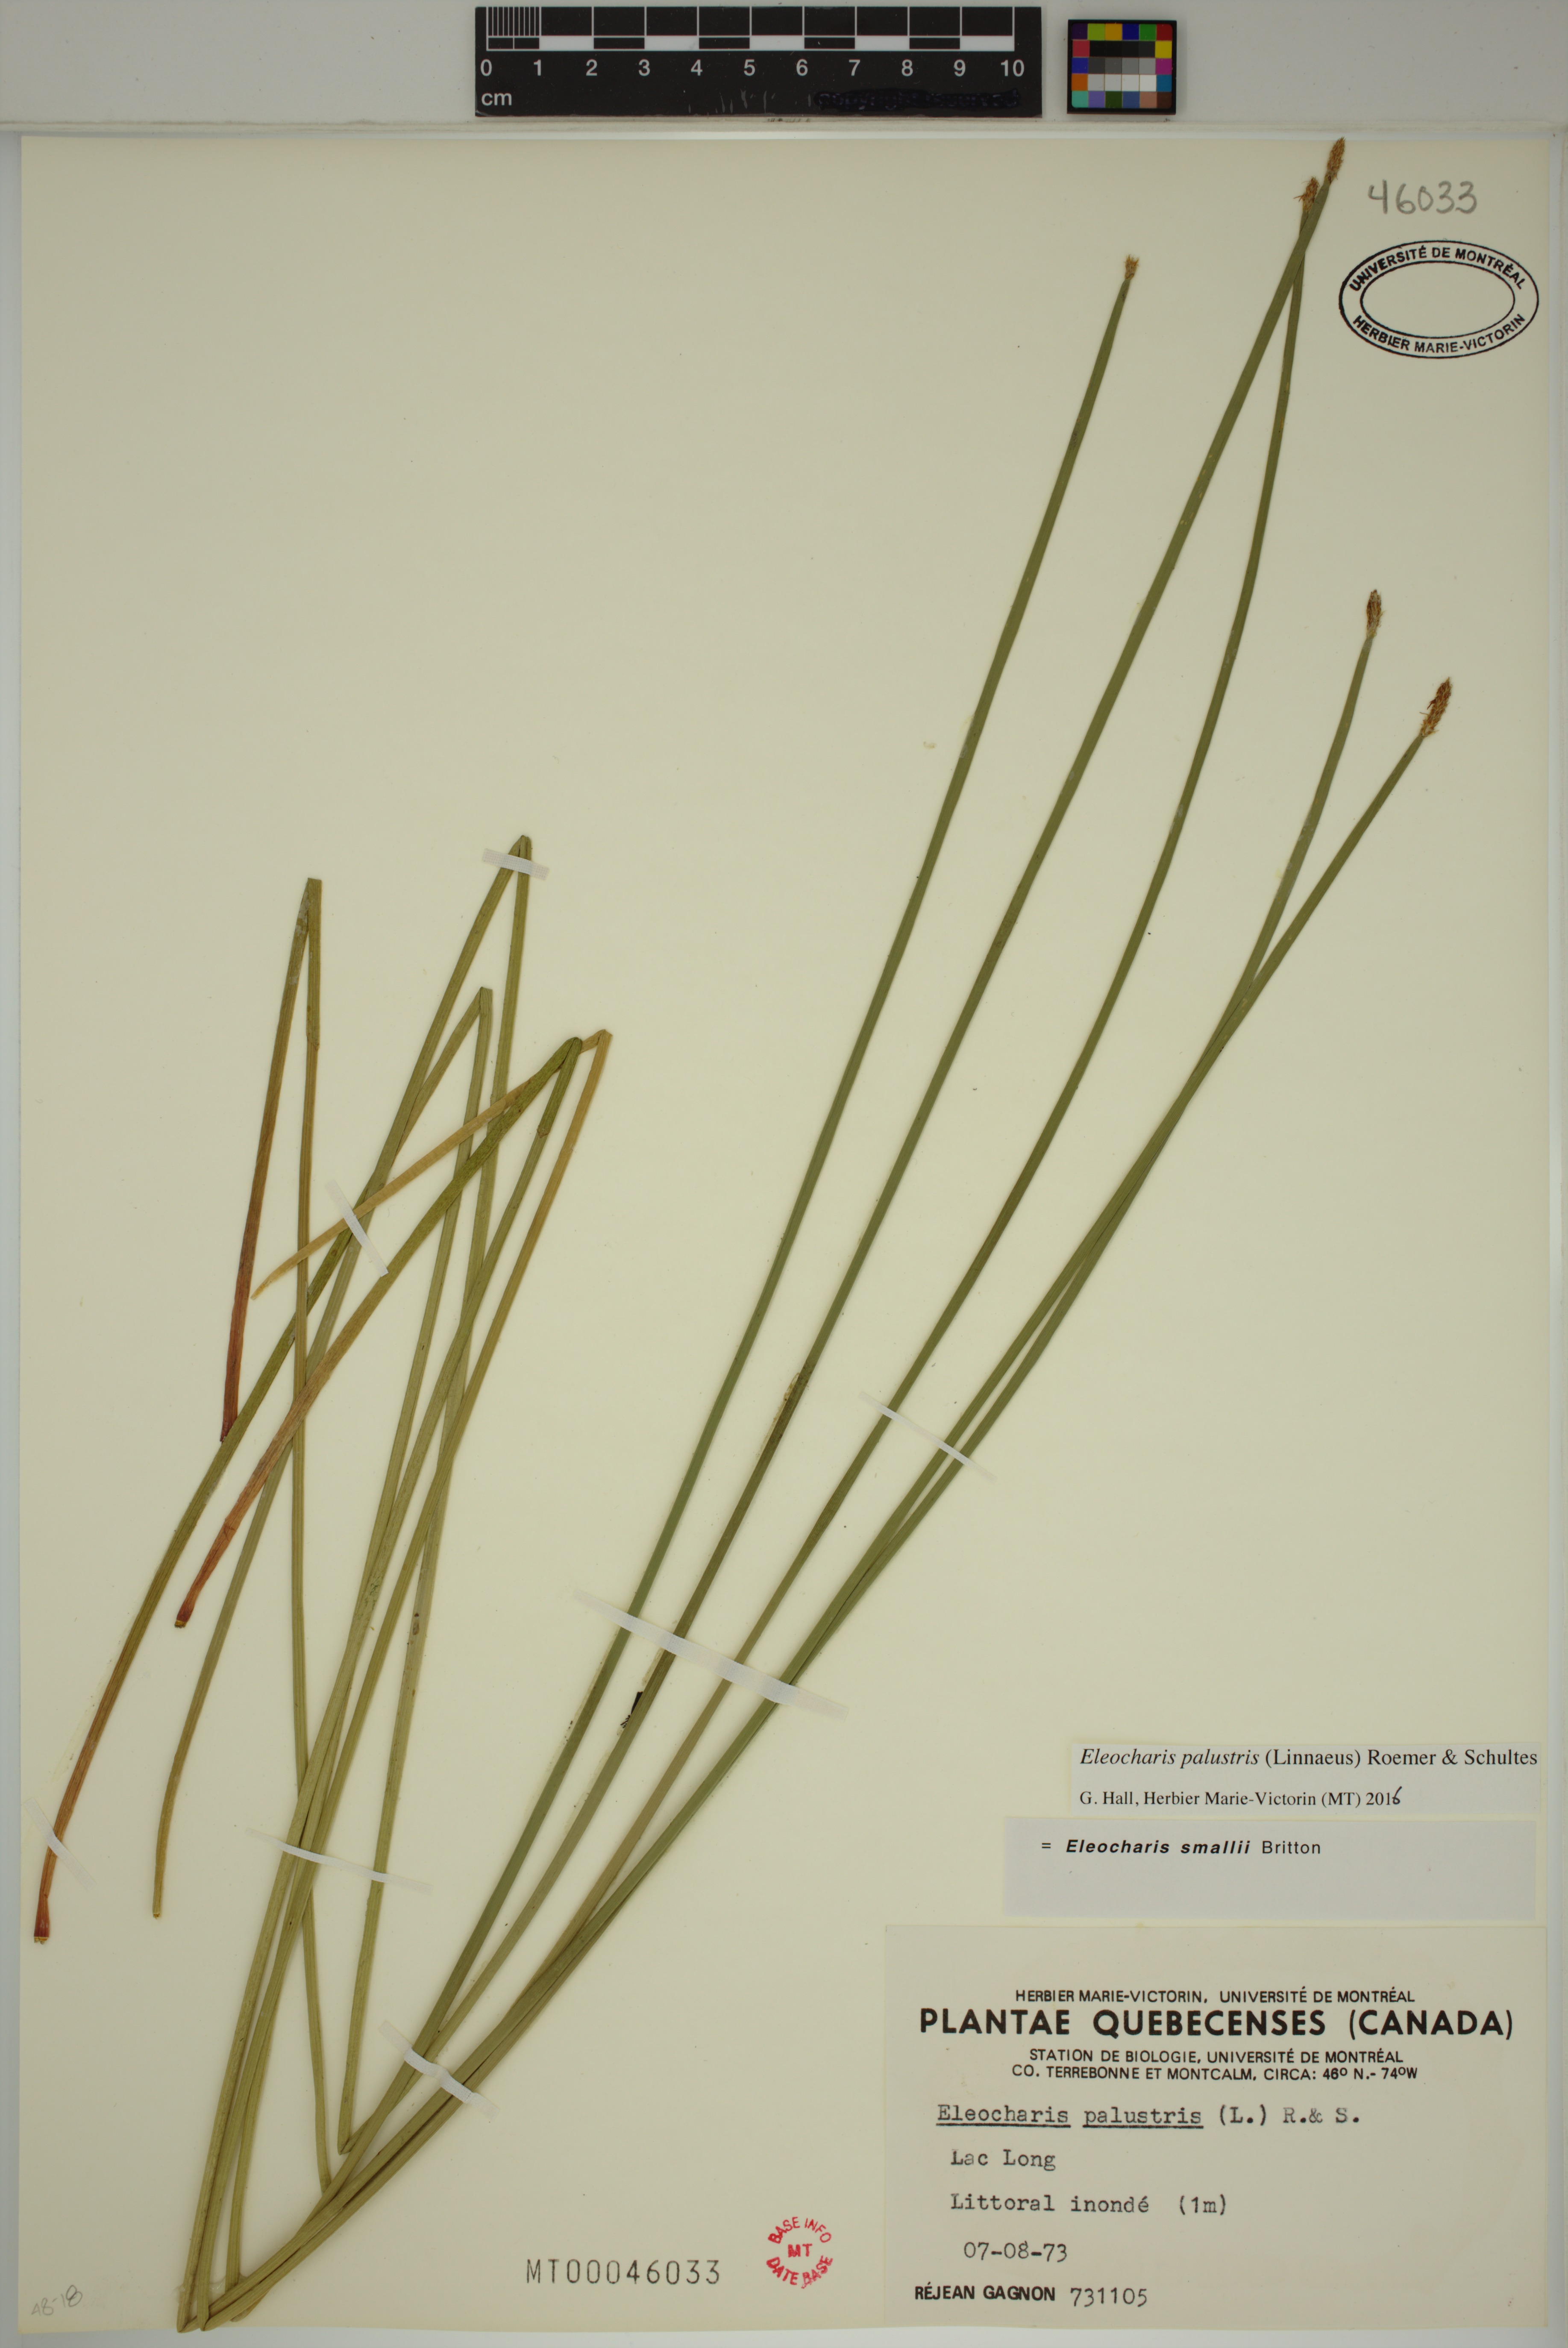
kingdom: Plantae
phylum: Tracheophyta
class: Liliopsida
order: Poales
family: Cyperaceae
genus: Eleocharis
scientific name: Eleocharis palustris
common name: Common spike-rush
